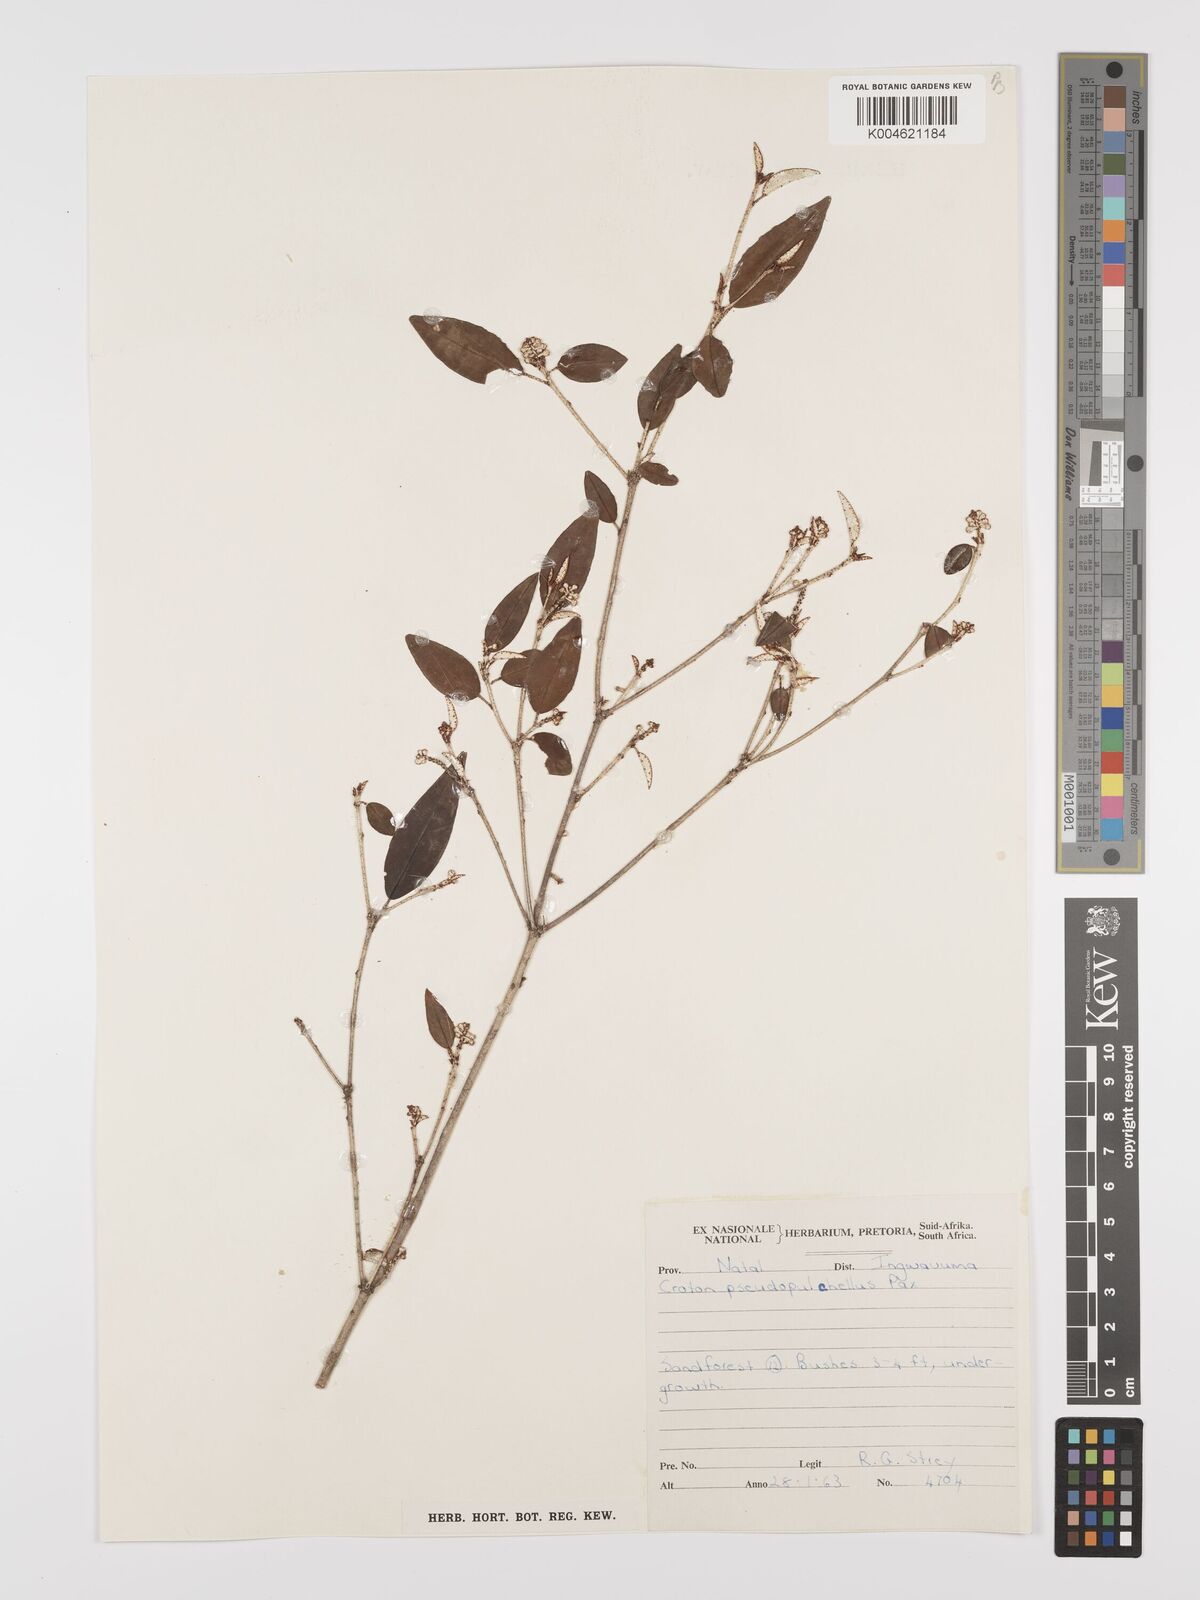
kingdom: Plantae
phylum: Tracheophyta
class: Magnoliopsida
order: Malpighiales
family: Euphorbiaceae
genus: Croton
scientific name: Croton pseudopulchellus
